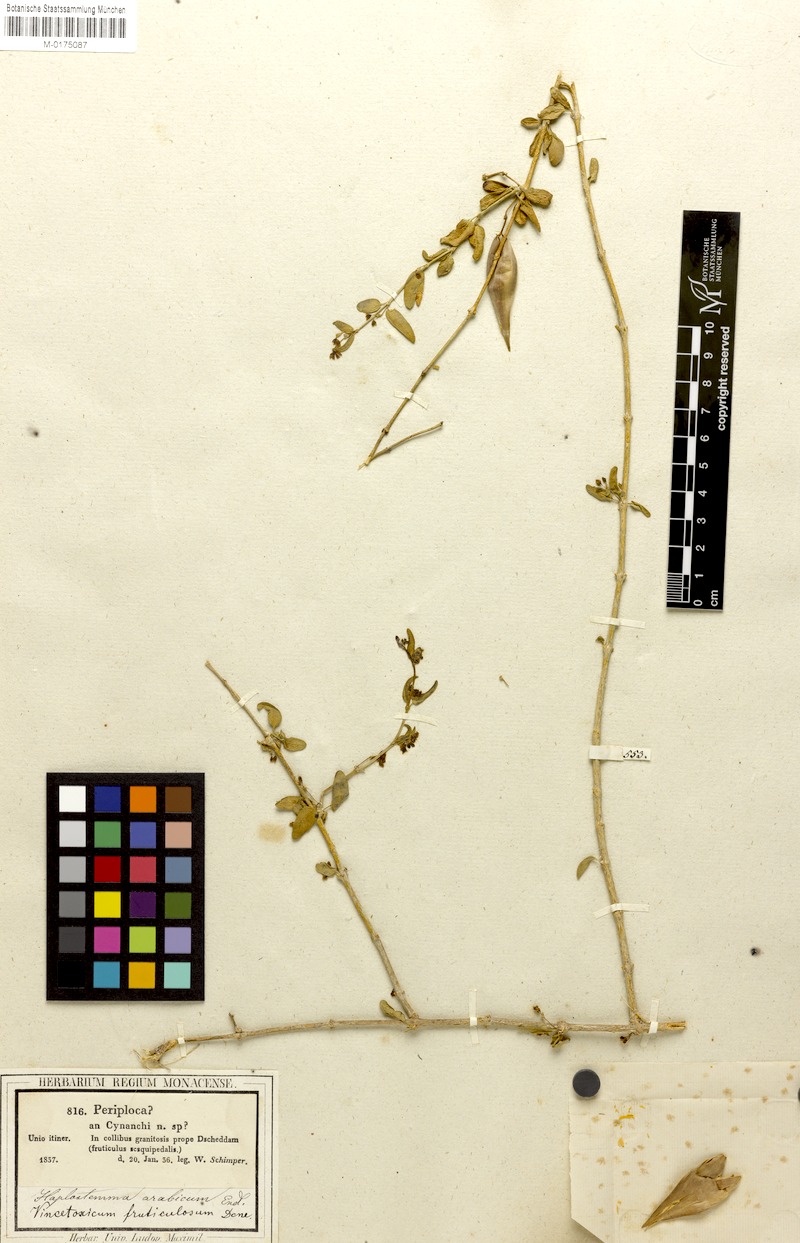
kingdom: Plantae
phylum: Tracheophyta
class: Magnoliopsida
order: Gentianales
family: Apocynaceae
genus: Vincetoxicum
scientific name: Vincetoxicum fruticulosum
